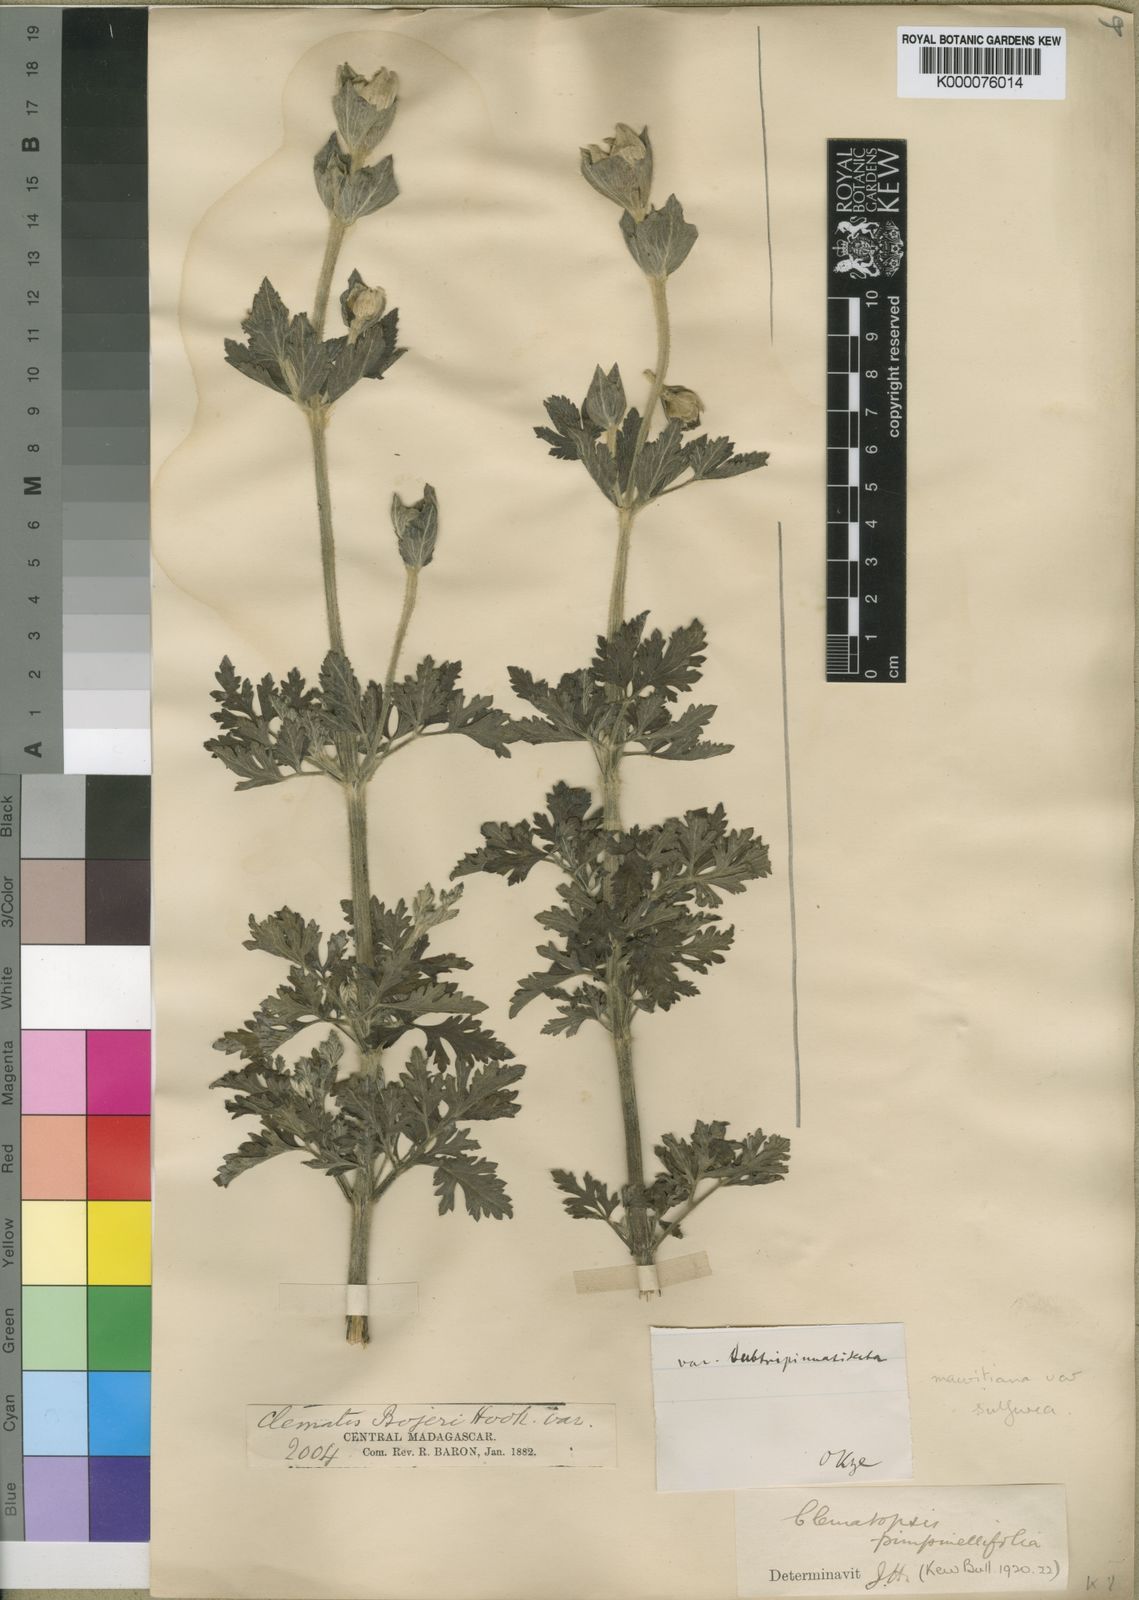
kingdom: Plantae
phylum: Tracheophyta
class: Magnoliopsida
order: Ranunculales
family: Ranunculaceae
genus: Clematopsis
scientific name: Clematopsis
